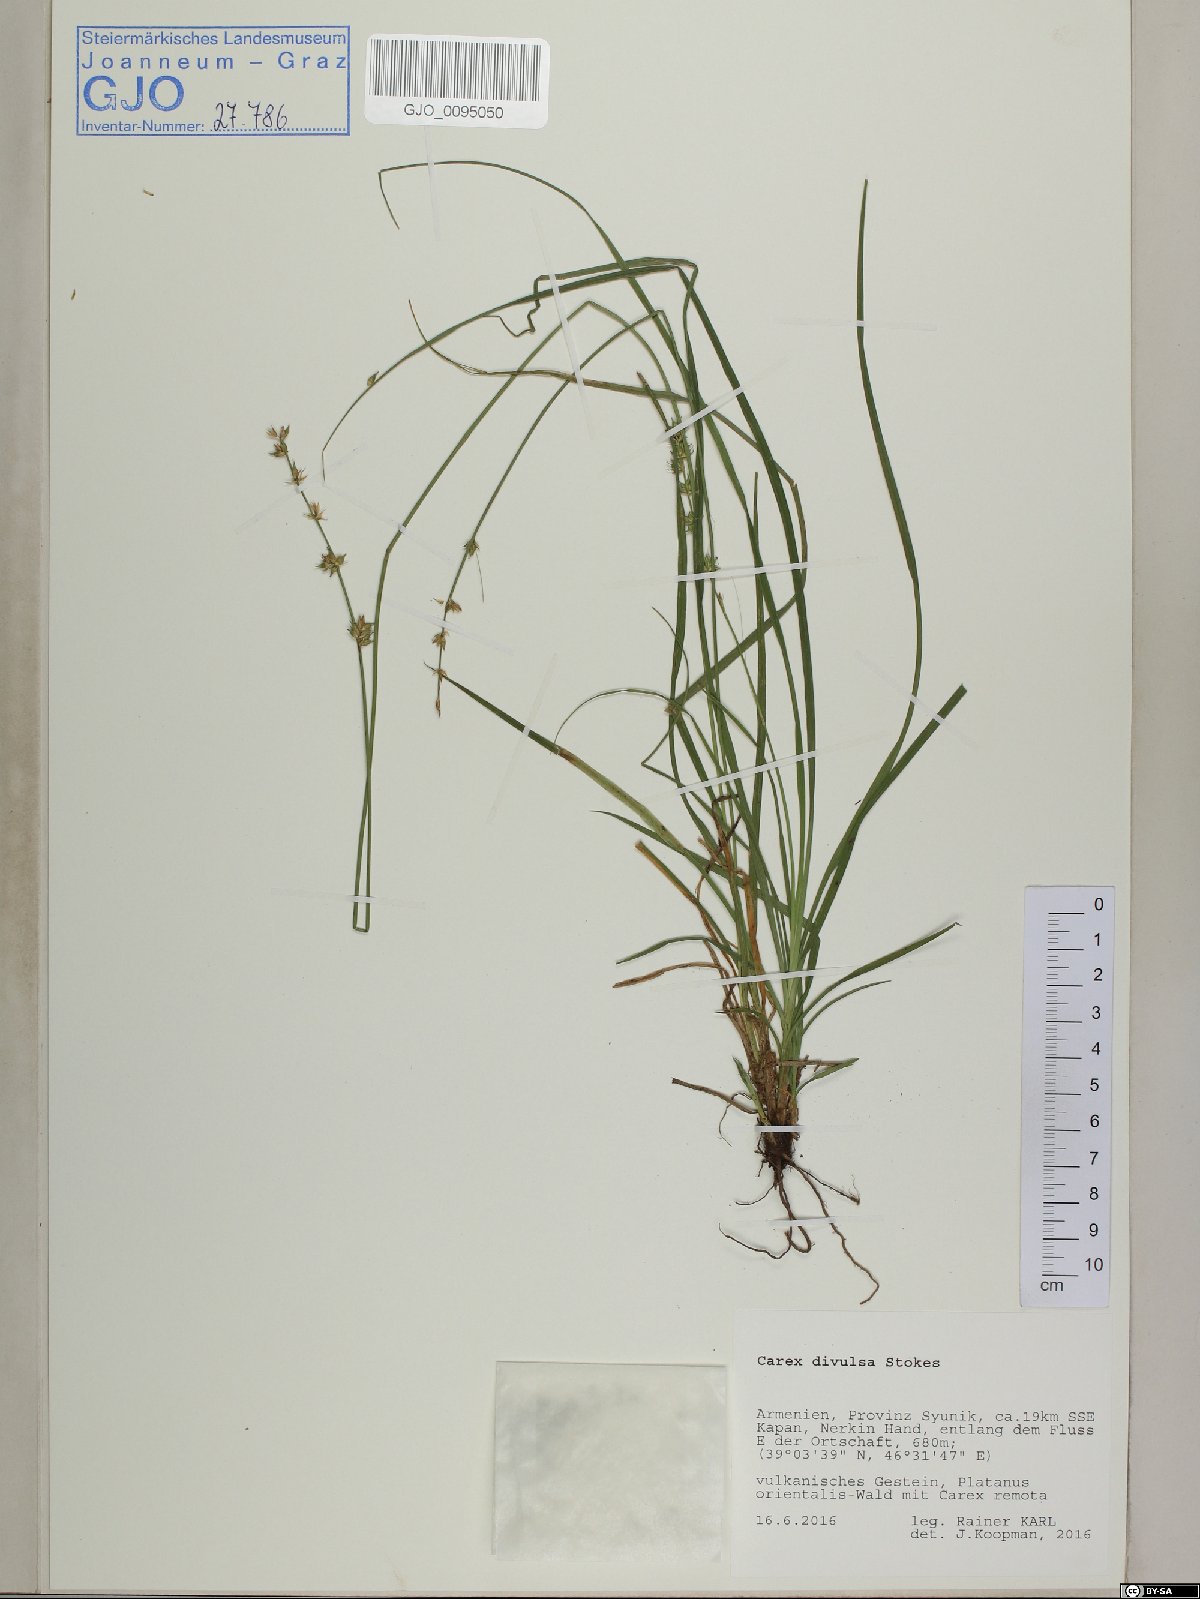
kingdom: Plantae
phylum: Tracheophyta
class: Liliopsida
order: Poales
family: Cyperaceae
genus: Carex
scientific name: Carex divulsa
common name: Grassland sedge
